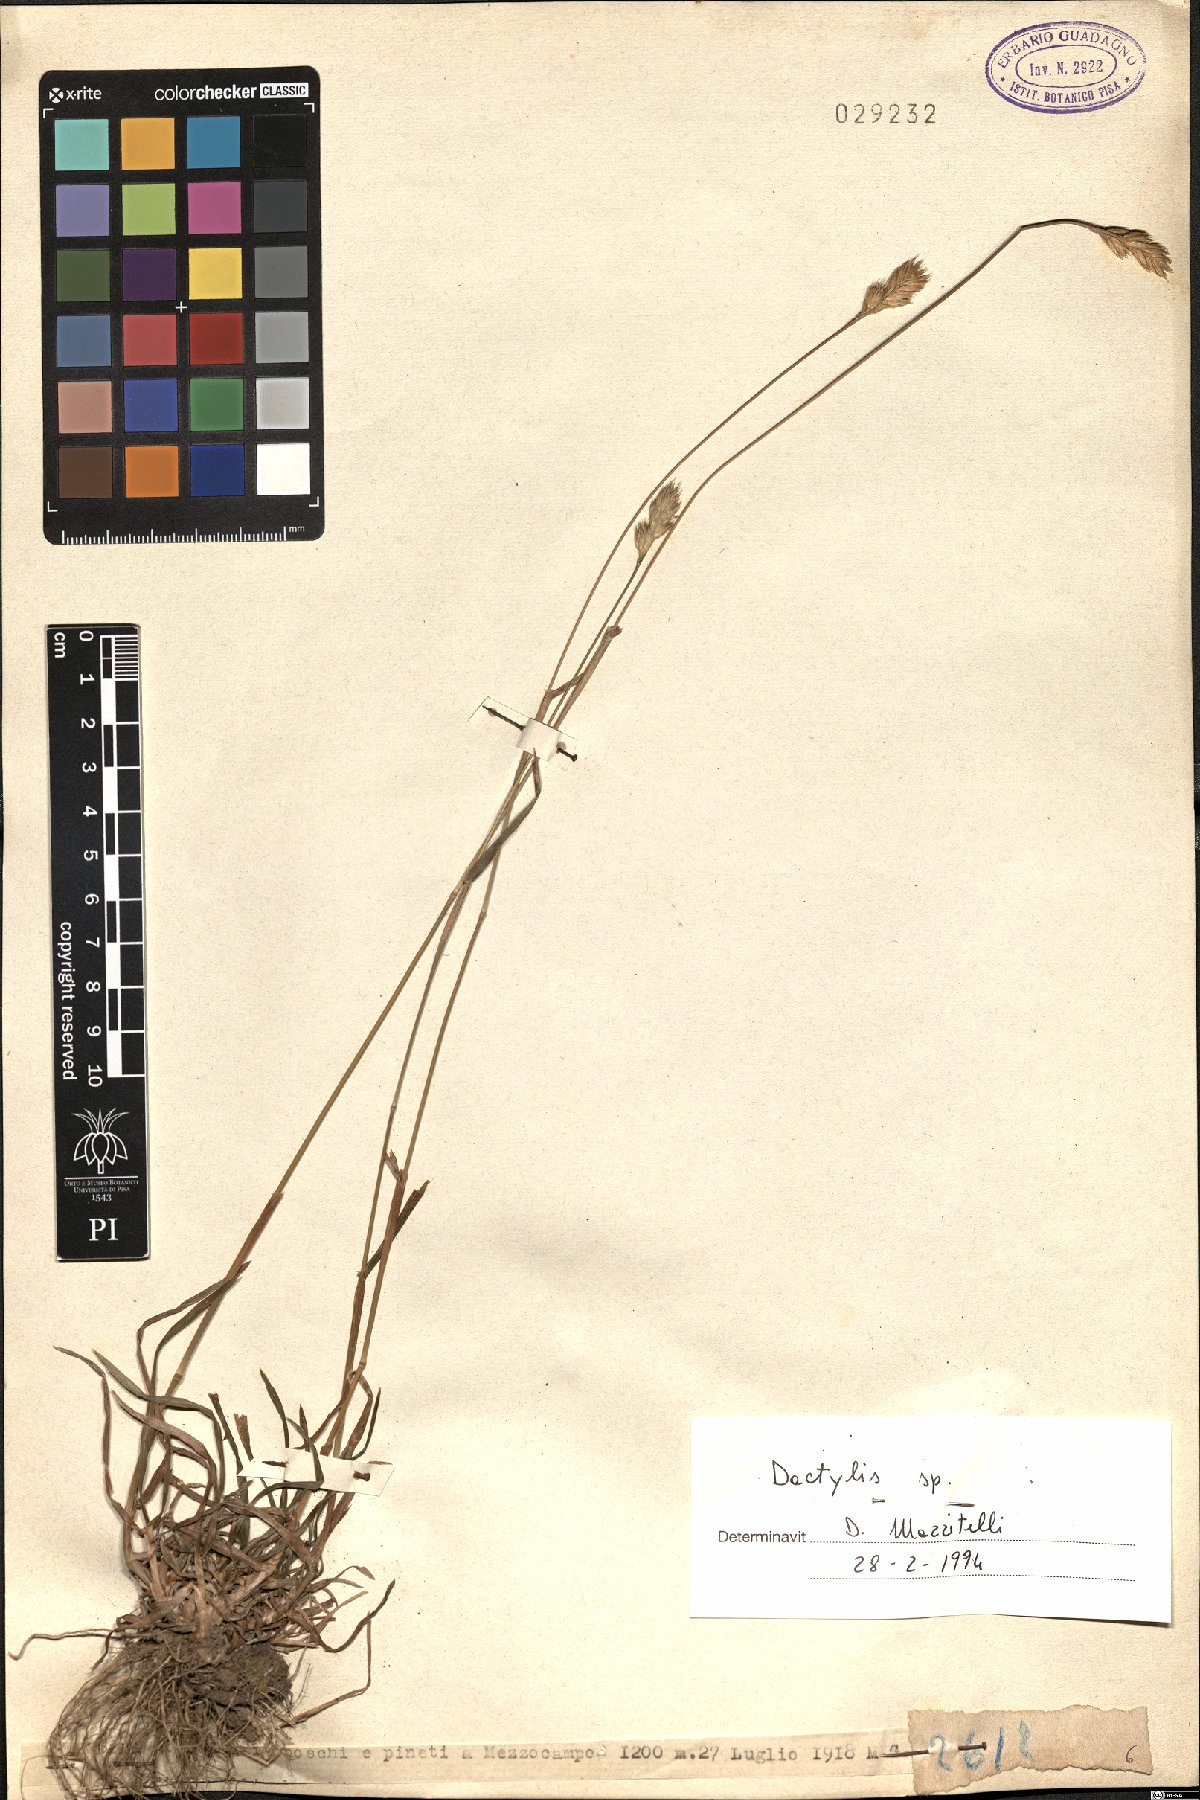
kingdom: Plantae
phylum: Tracheophyta
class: Liliopsida
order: Poales
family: Poaceae
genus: Dactylis
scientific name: Dactylis
